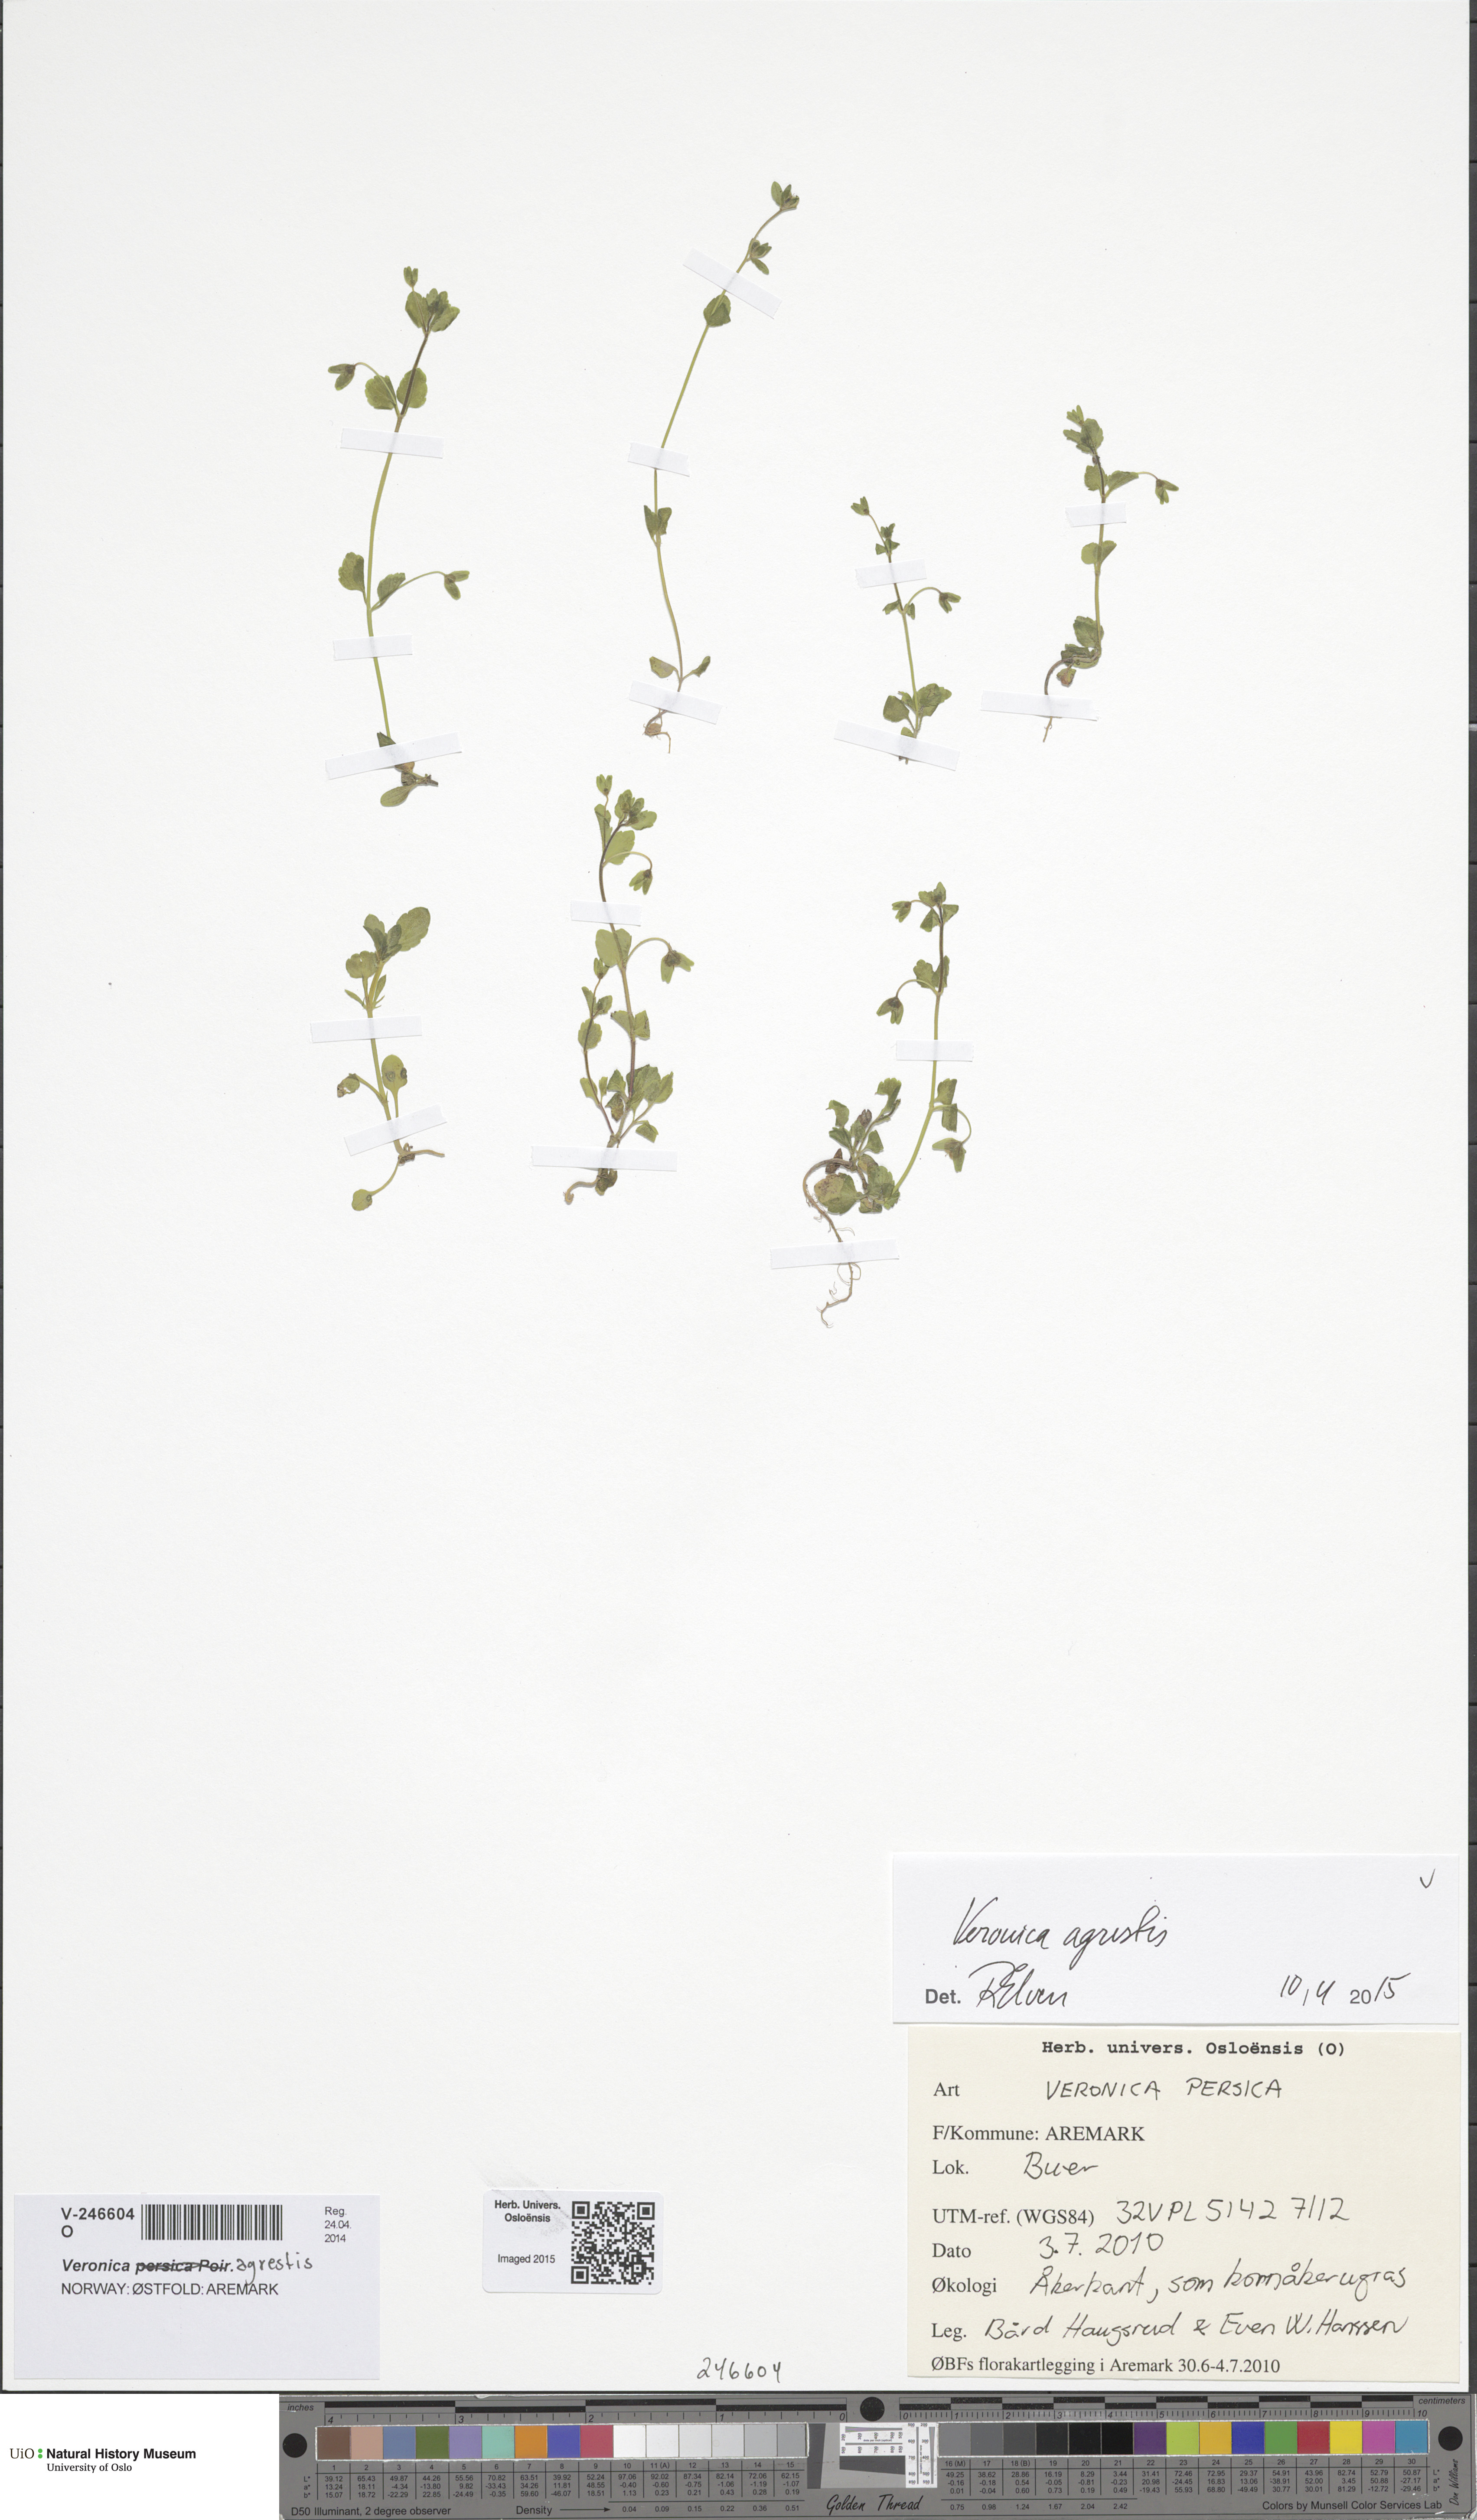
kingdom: Plantae
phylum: Tracheophyta
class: Magnoliopsida
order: Lamiales
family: Plantaginaceae
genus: Veronica
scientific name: Veronica agrestis
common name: Green field-speedwell
